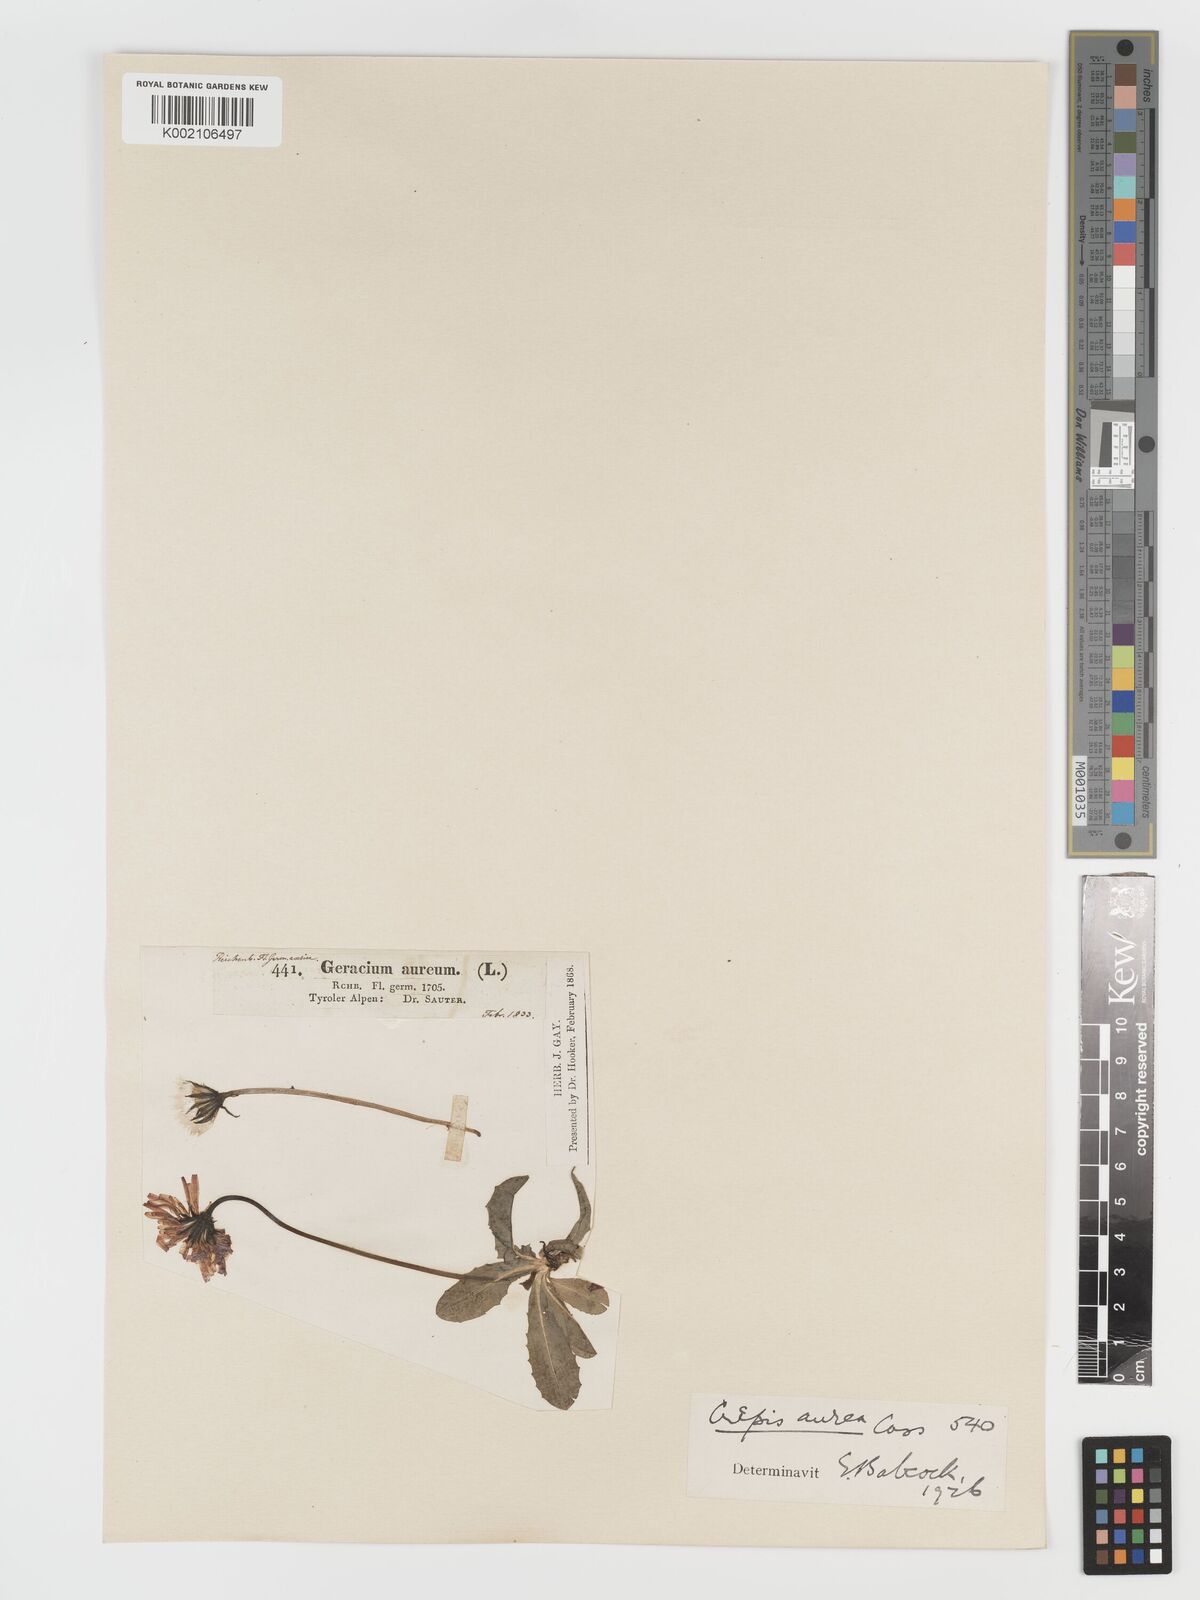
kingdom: Plantae
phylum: Tracheophyta
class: Magnoliopsida
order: Asterales
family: Asteraceae
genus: Crepis
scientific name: Crepis aurea
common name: Golden hawk's-beard
